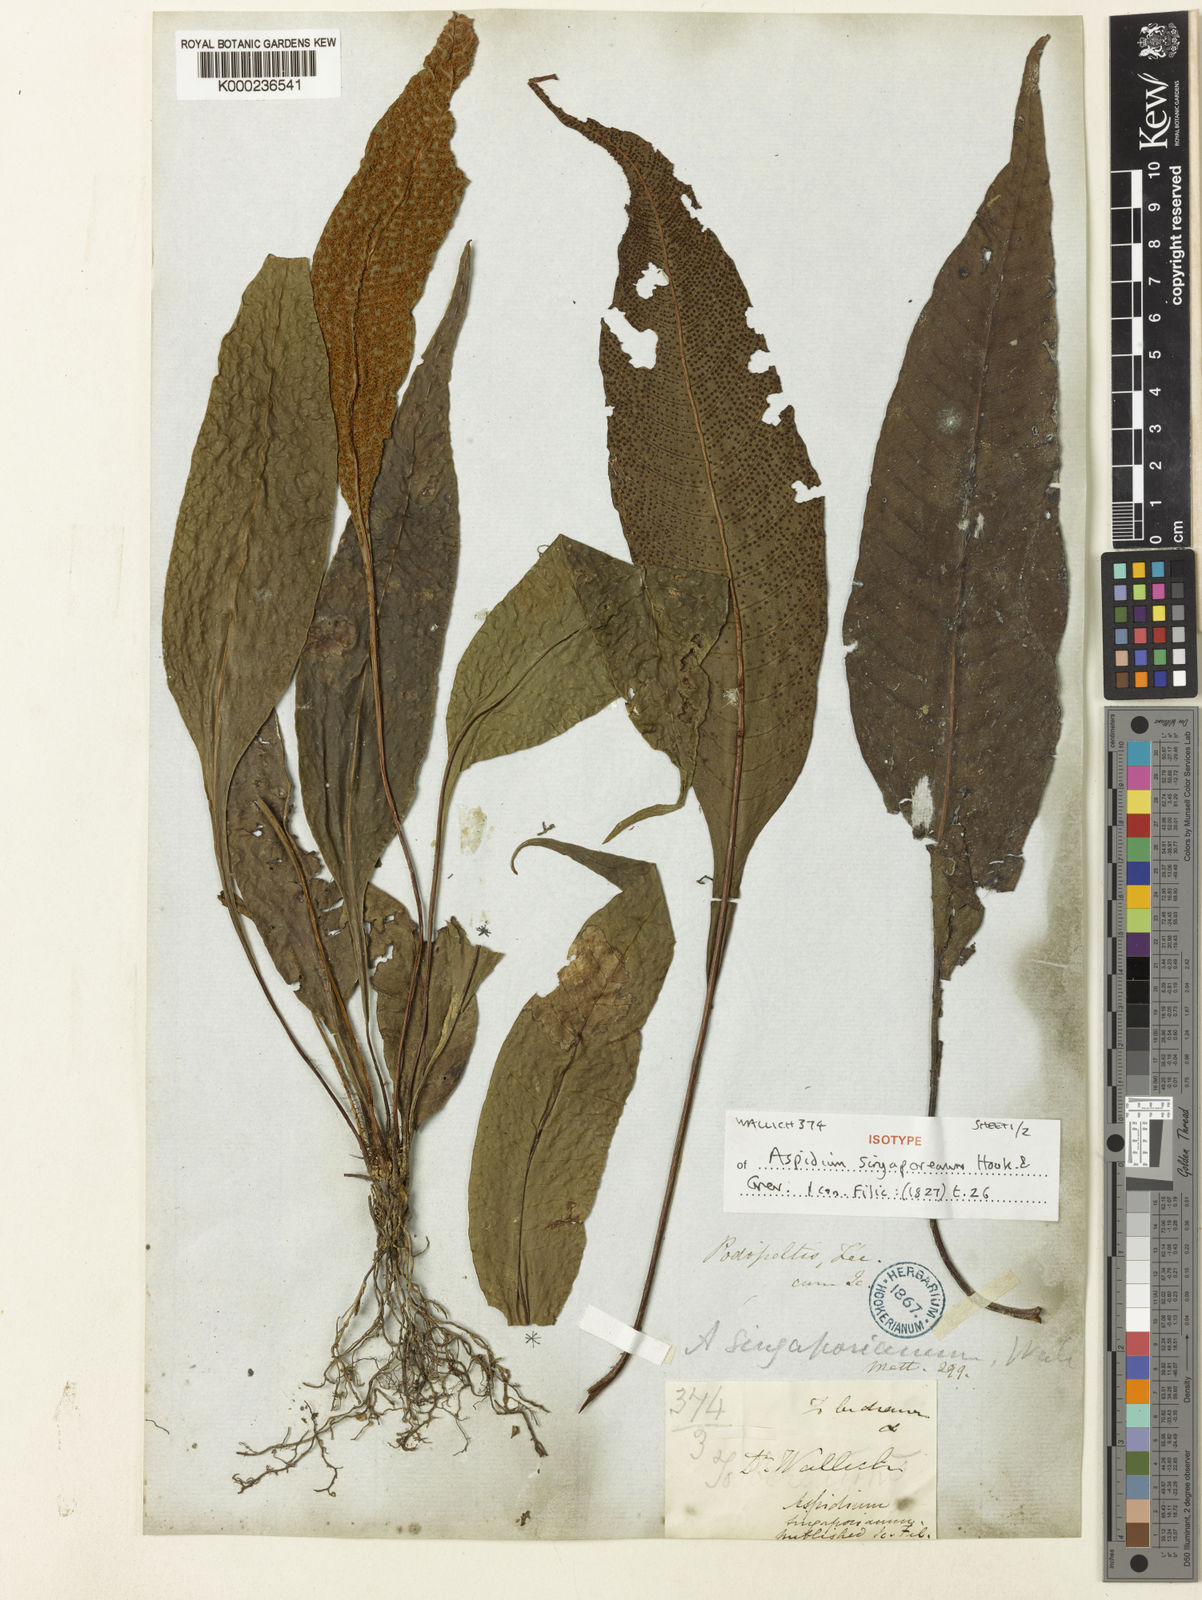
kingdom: Plantae
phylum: Tracheophyta
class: Polypodiopsida
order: Polypodiales
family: Tectariaceae
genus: Tectaria
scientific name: Tectaria
